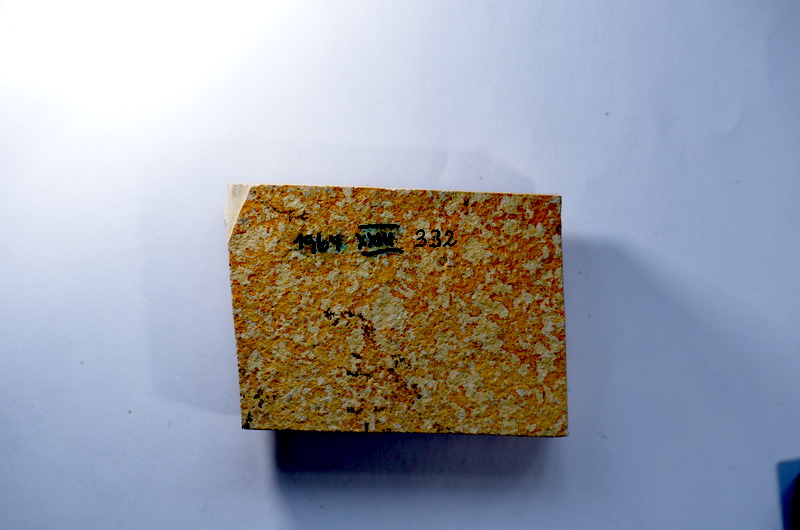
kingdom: Animalia
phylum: Chordata
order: Salmoniformes
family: Orthogonikleithridae
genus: Leptolepides
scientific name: Leptolepides
